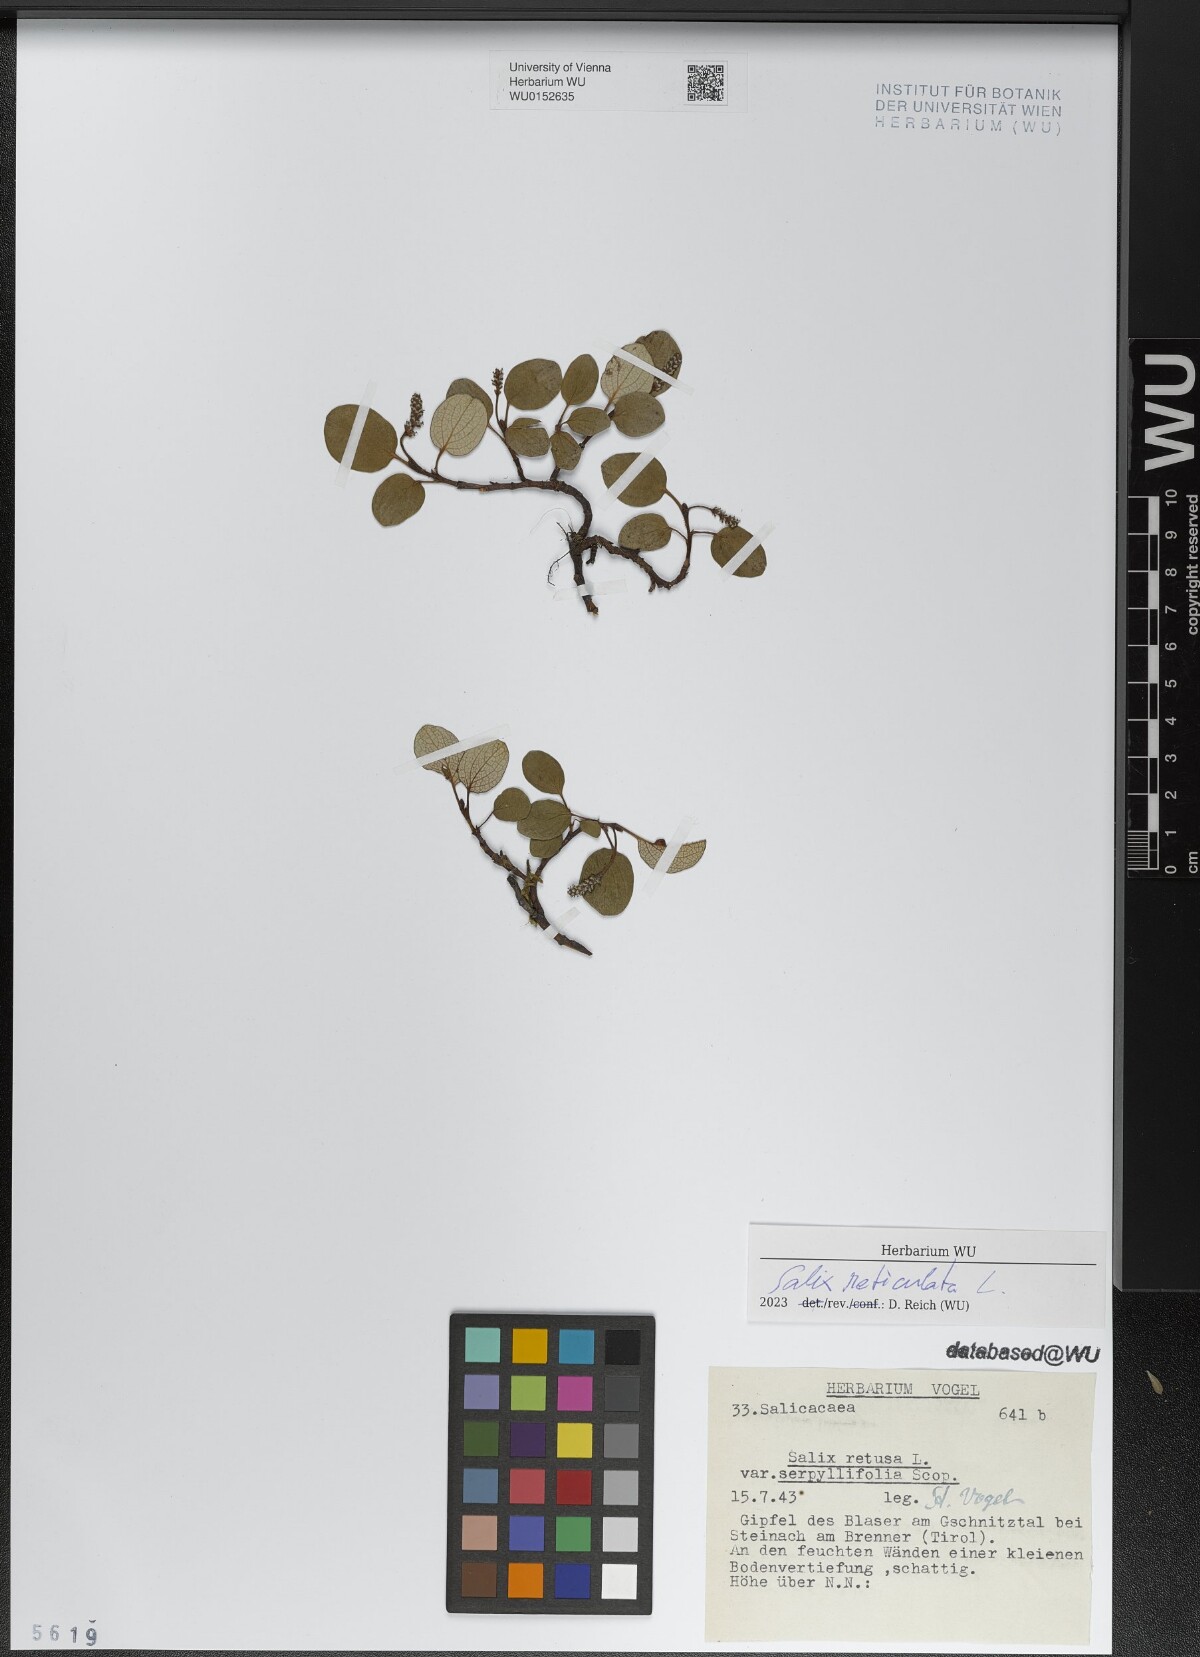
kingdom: Plantae
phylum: Tracheophyta
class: Magnoliopsida
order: Malpighiales
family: Salicaceae
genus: Salix
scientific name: Salix reticulata
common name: Net-leaved willow
